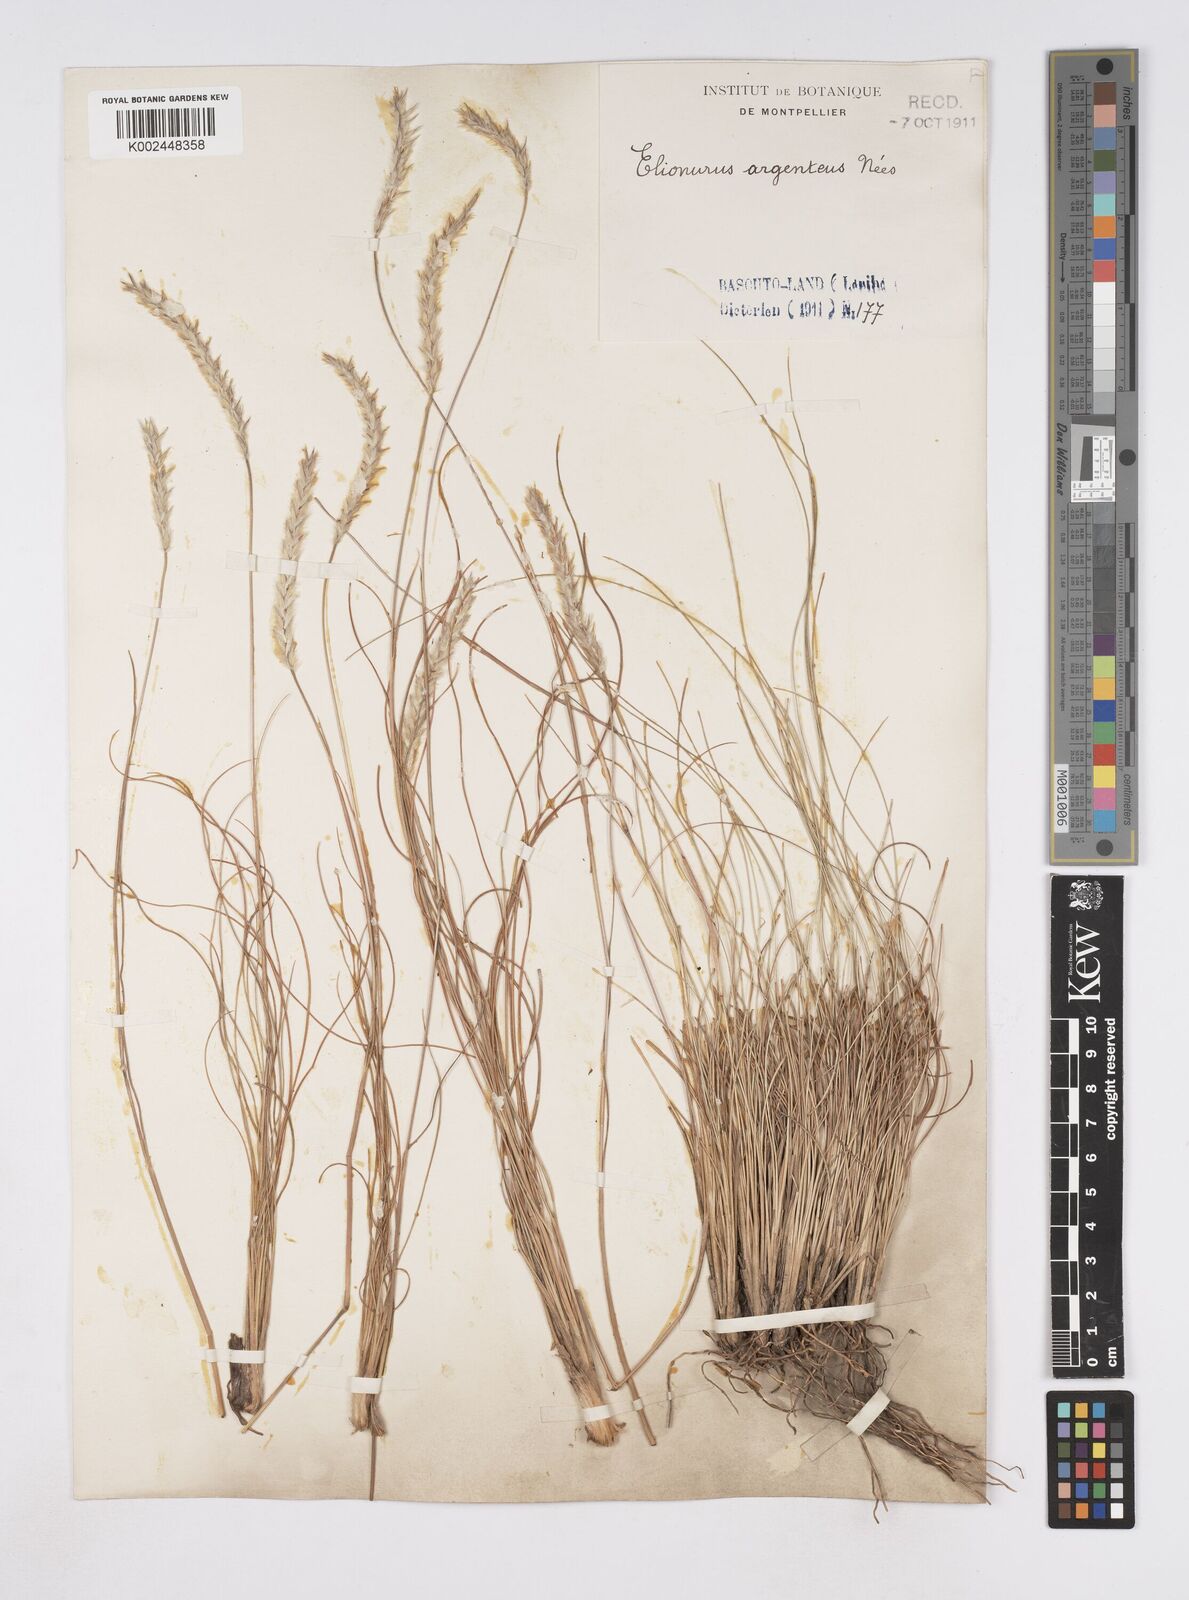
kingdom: Plantae
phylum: Tracheophyta
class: Liliopsida
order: Poales
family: Poaceae
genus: Elionurus
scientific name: Elionurus muticus
